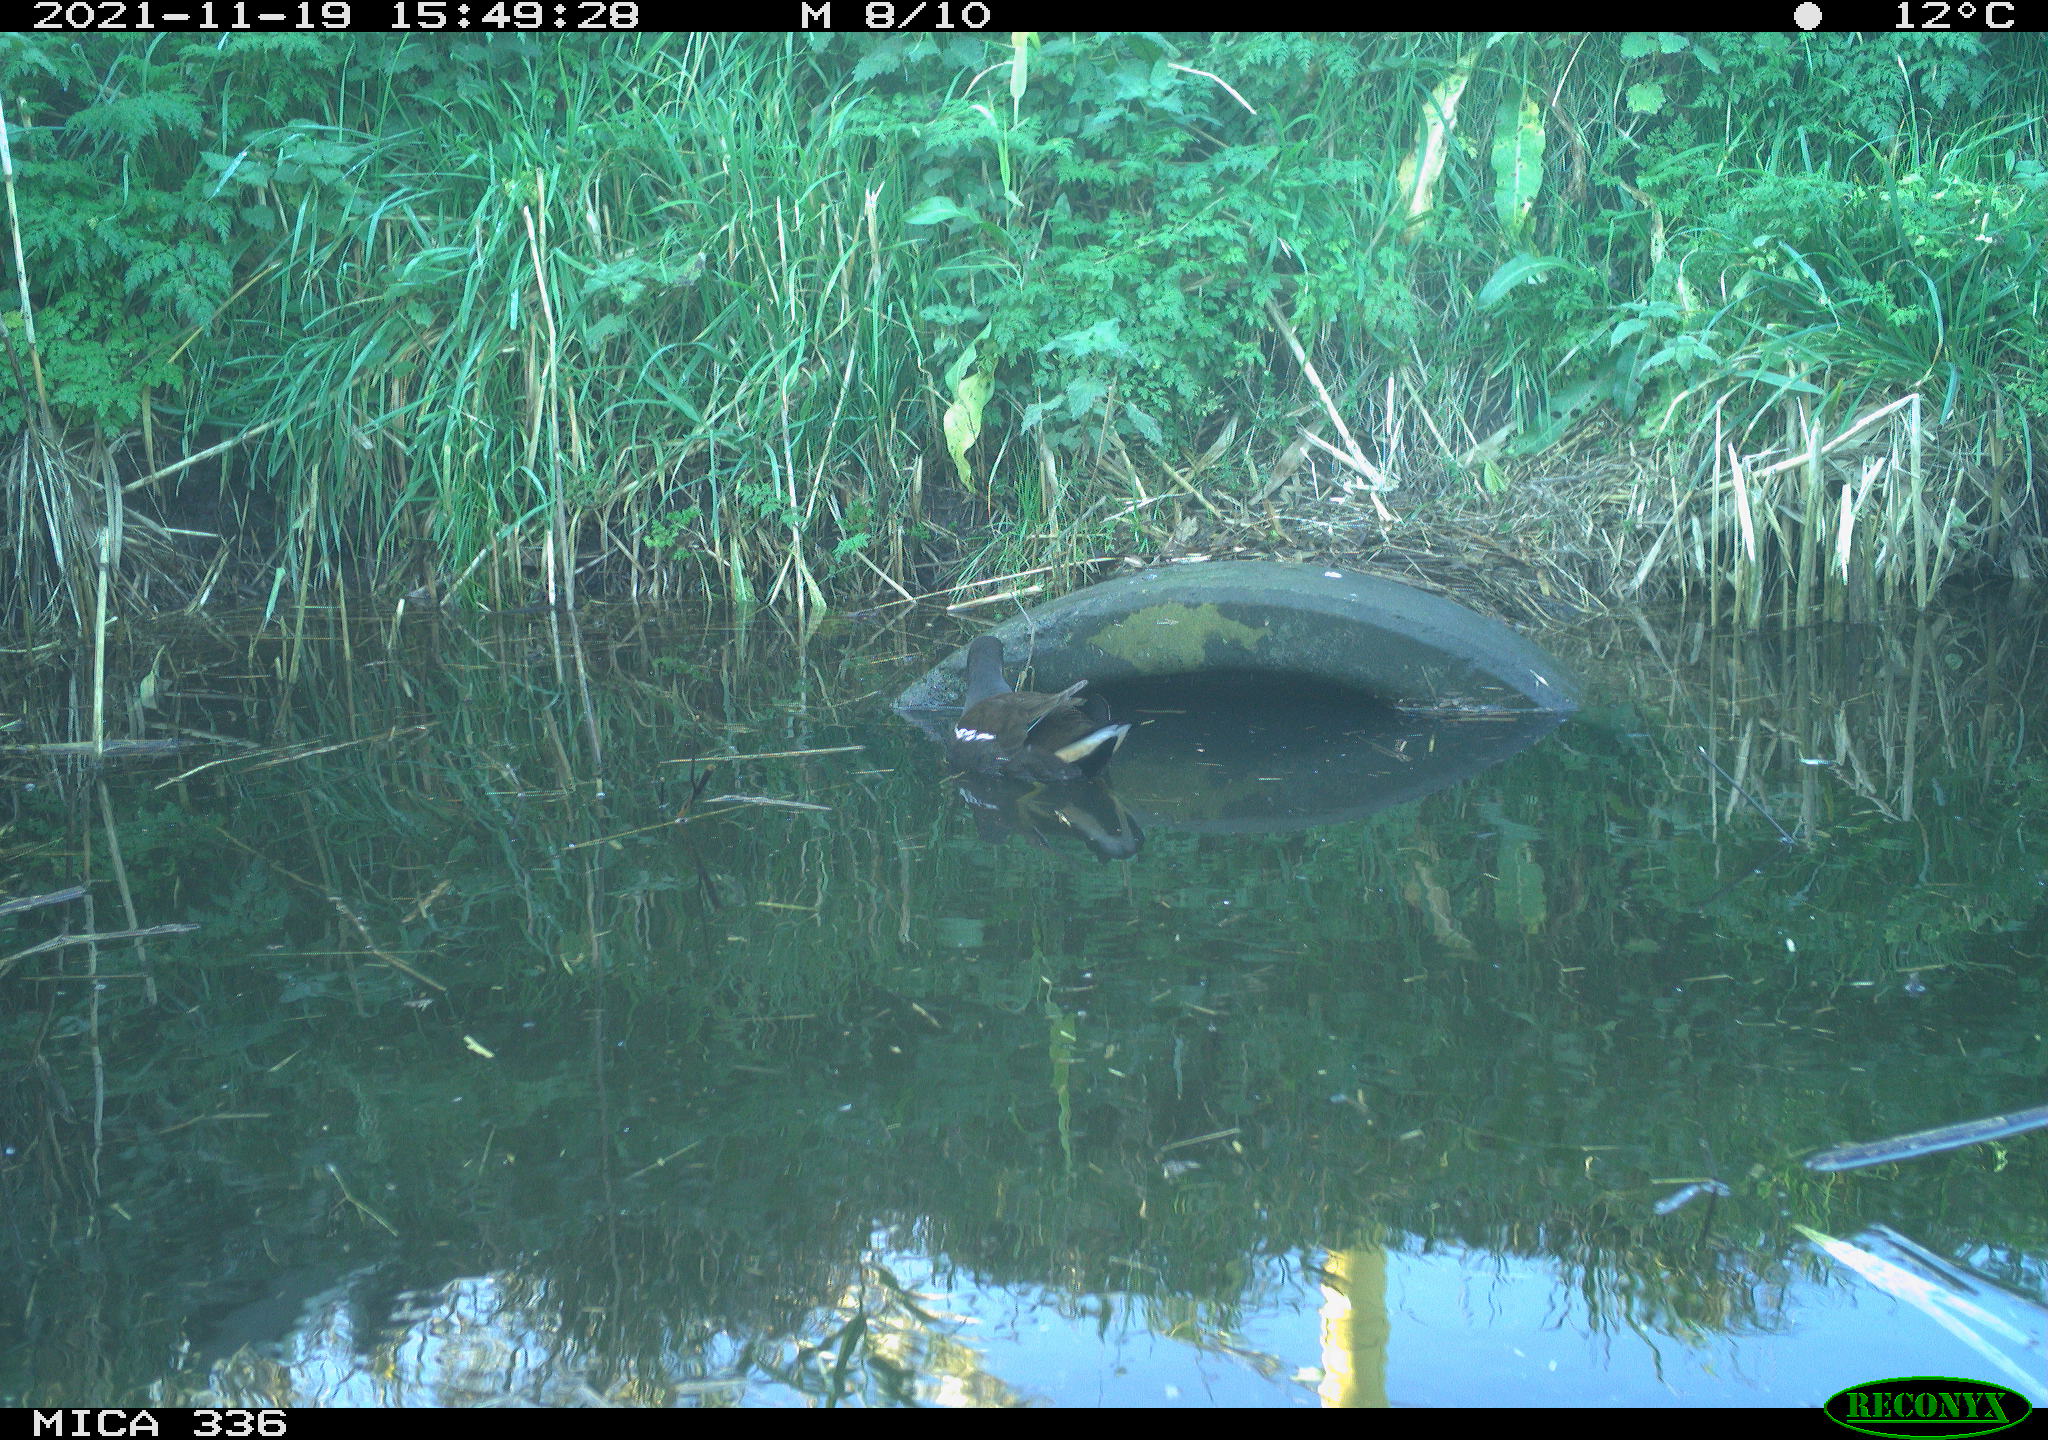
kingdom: Animalia
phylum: Chordata
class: Aves
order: Gruiformes
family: Rallidae
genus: Gallinula
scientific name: Gallinula chloropus
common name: Common moorhen
